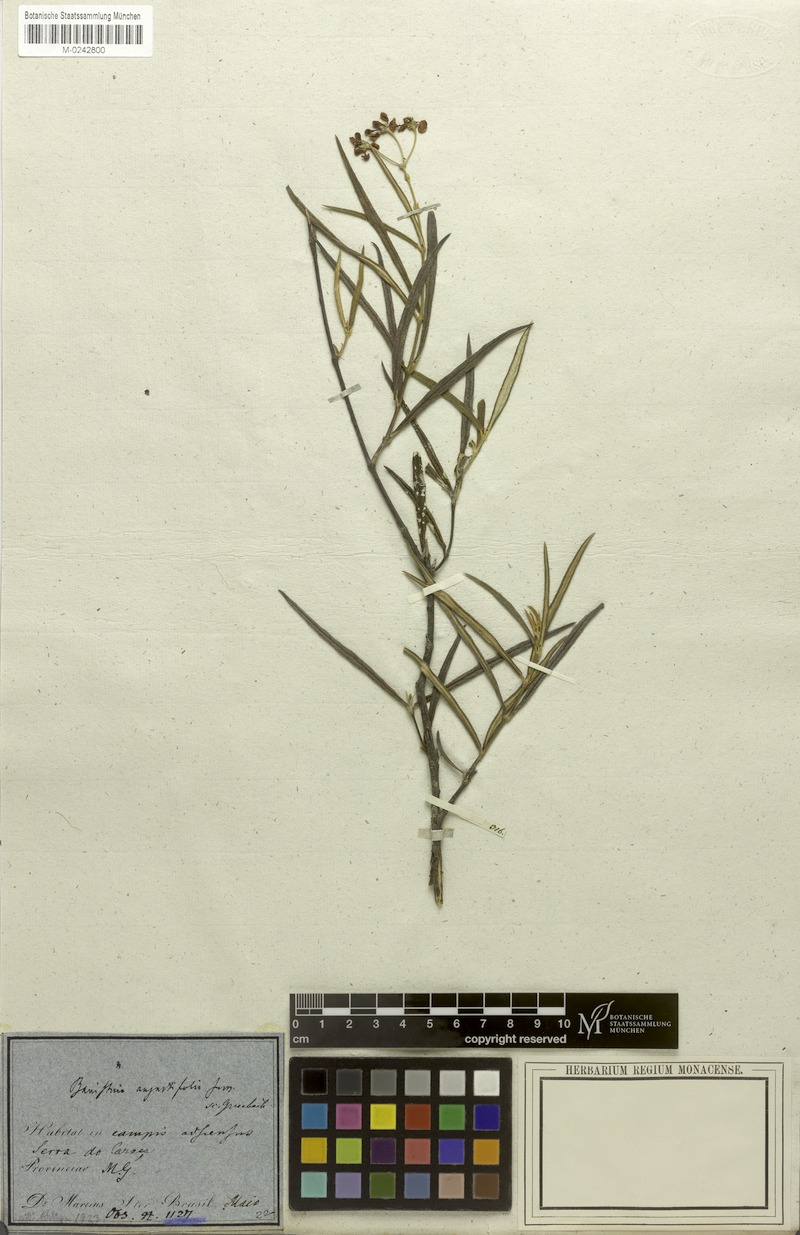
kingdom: Plantae
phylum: Tracheophyta
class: Magnoliopsida
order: Malpighiales
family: Malpighiaceae
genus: Banisteriopsis
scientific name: Banisteriopsis angustifolia
